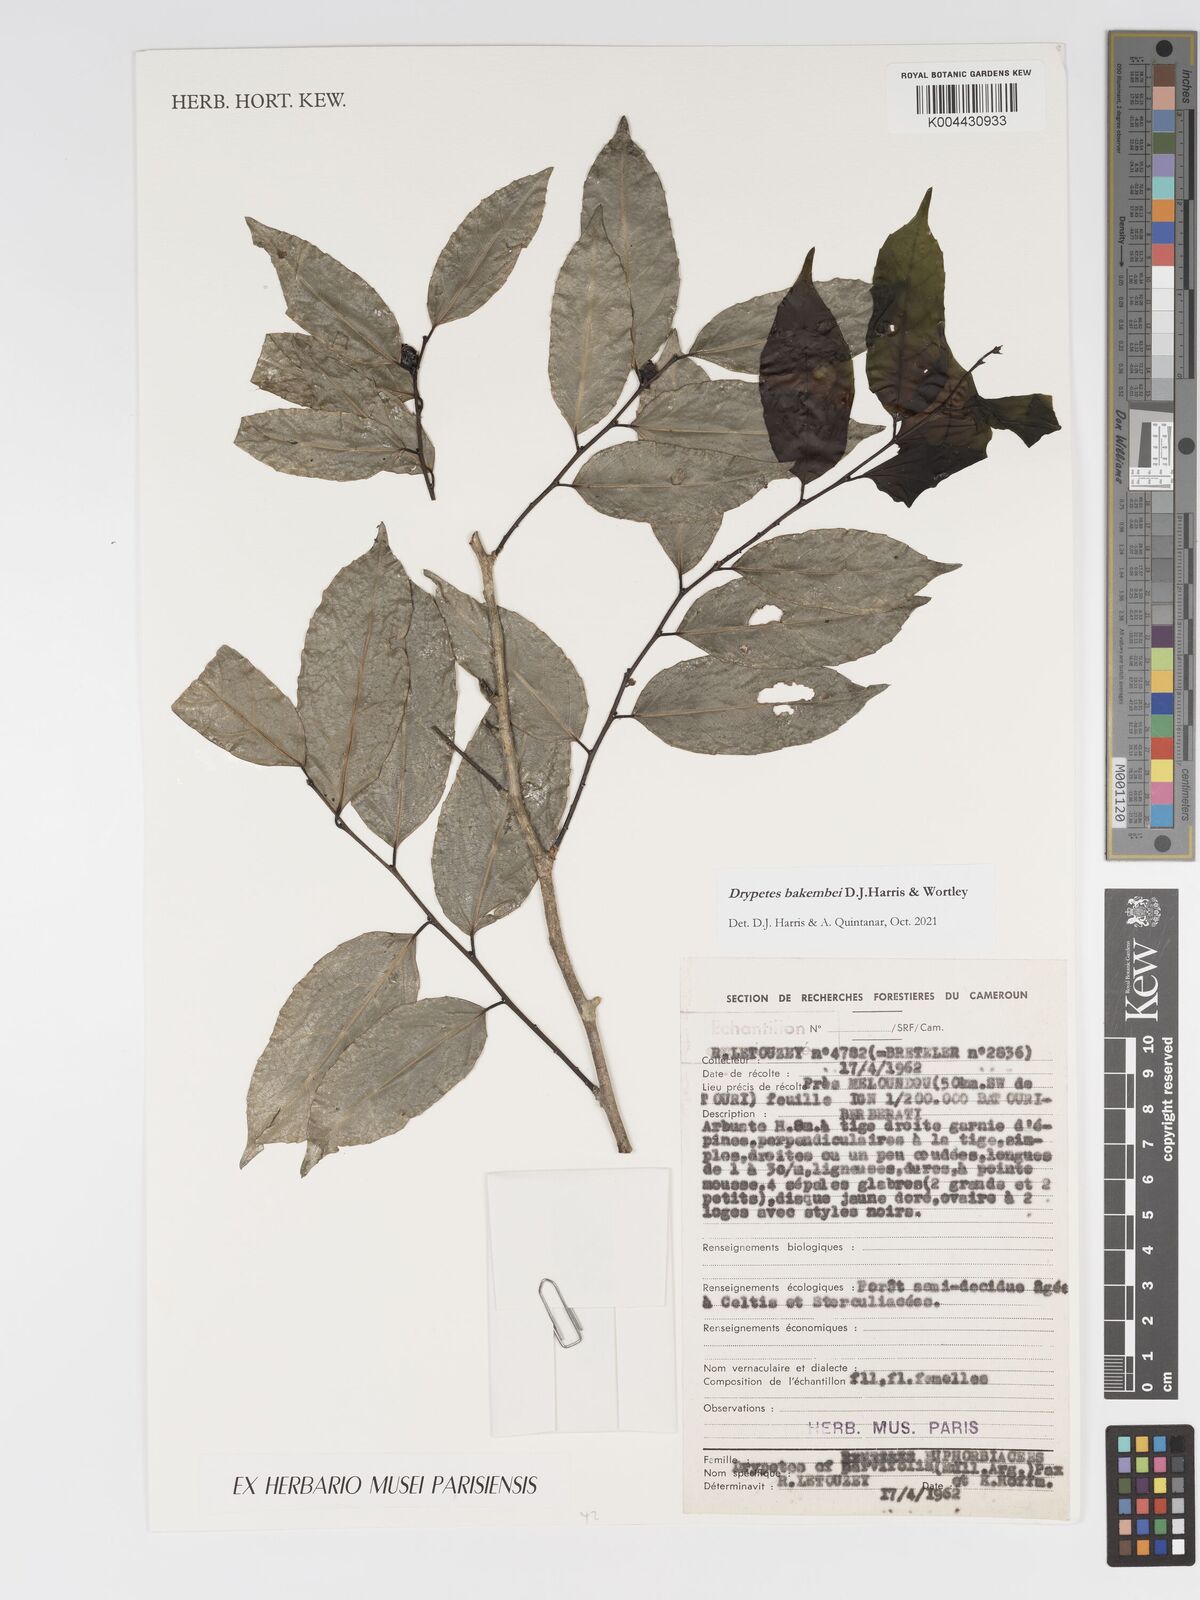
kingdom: Plantae
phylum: Tracheophyta
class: Magnoliopsida
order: Malpighiales
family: Putranjivaceae
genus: Drypetes
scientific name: Drypetes bakembei
